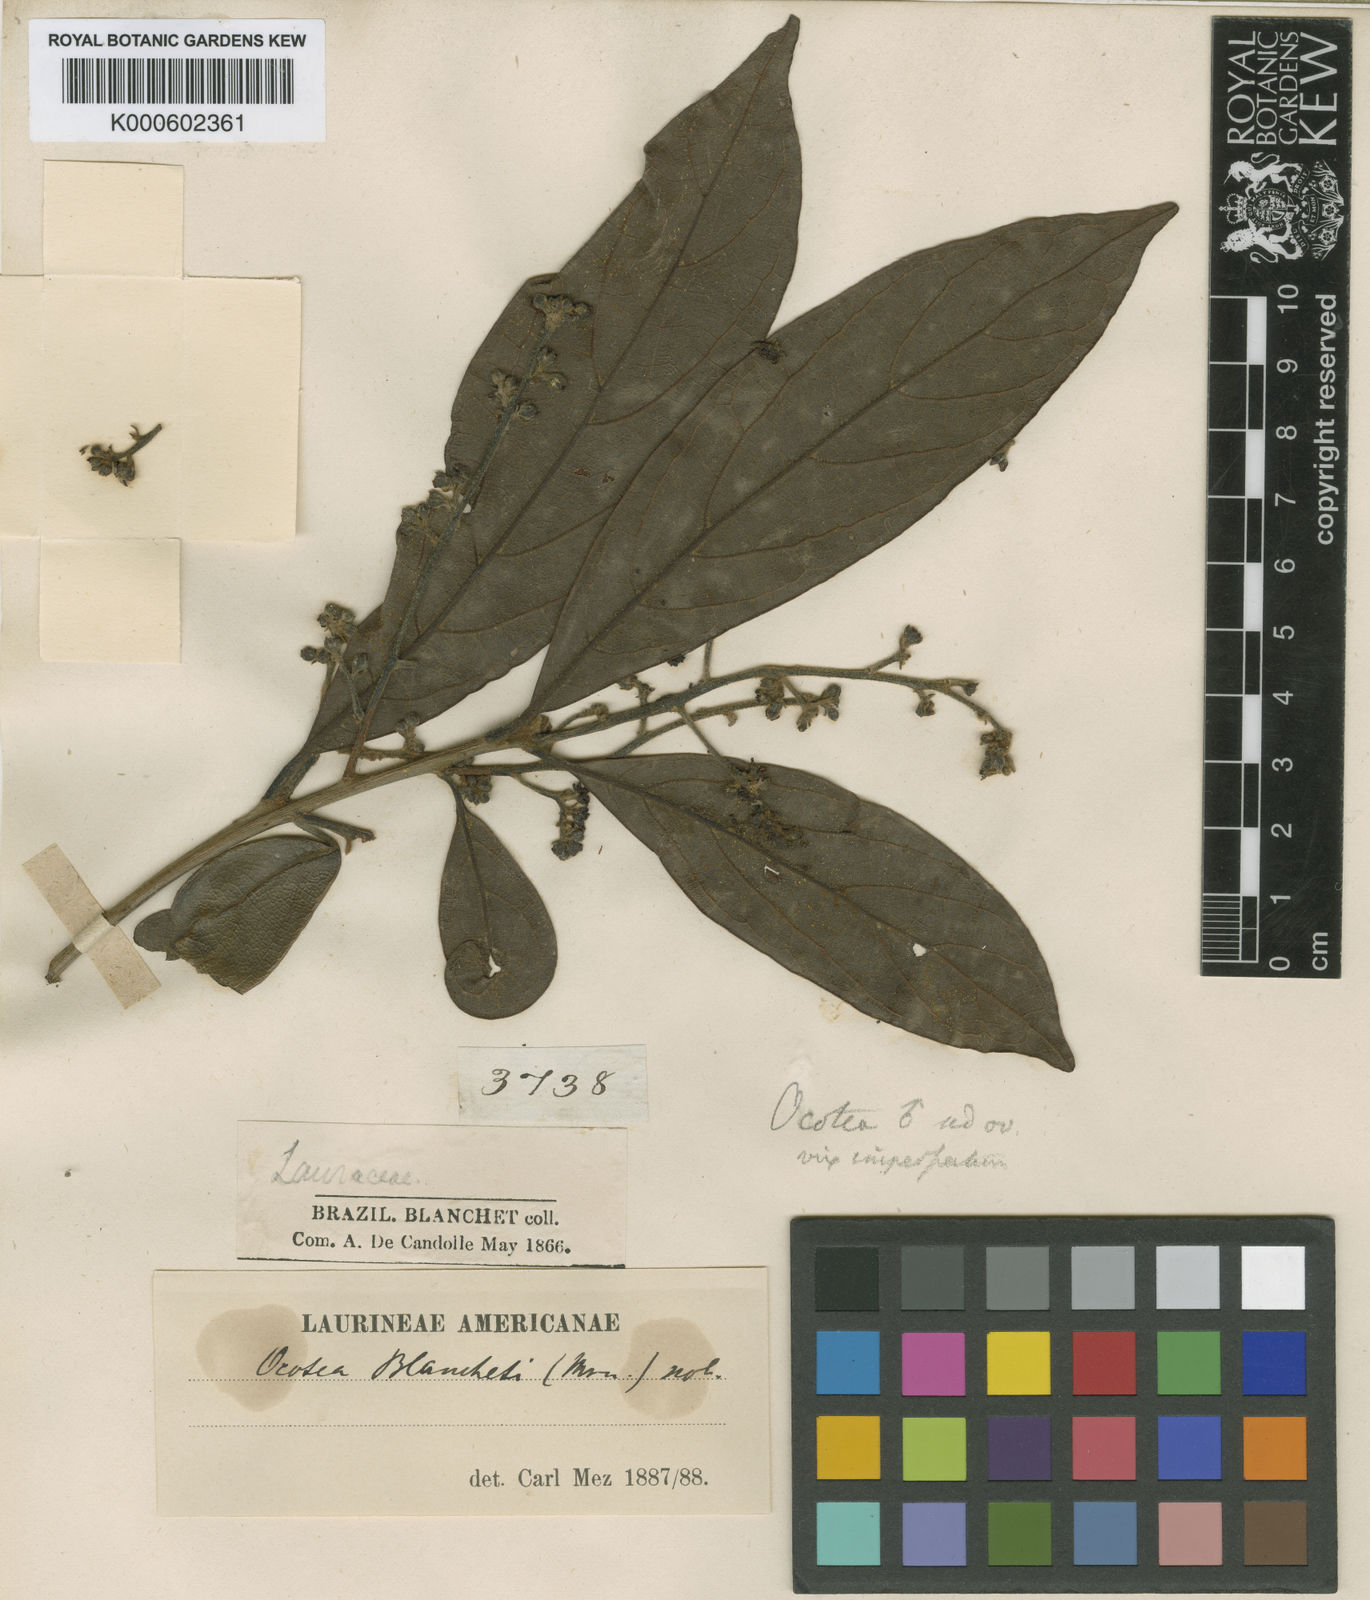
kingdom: Plantae
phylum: Tracheophyta
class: Magnoliopsida
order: Laurales
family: Lauraceae
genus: Andea
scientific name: Andea velutina
